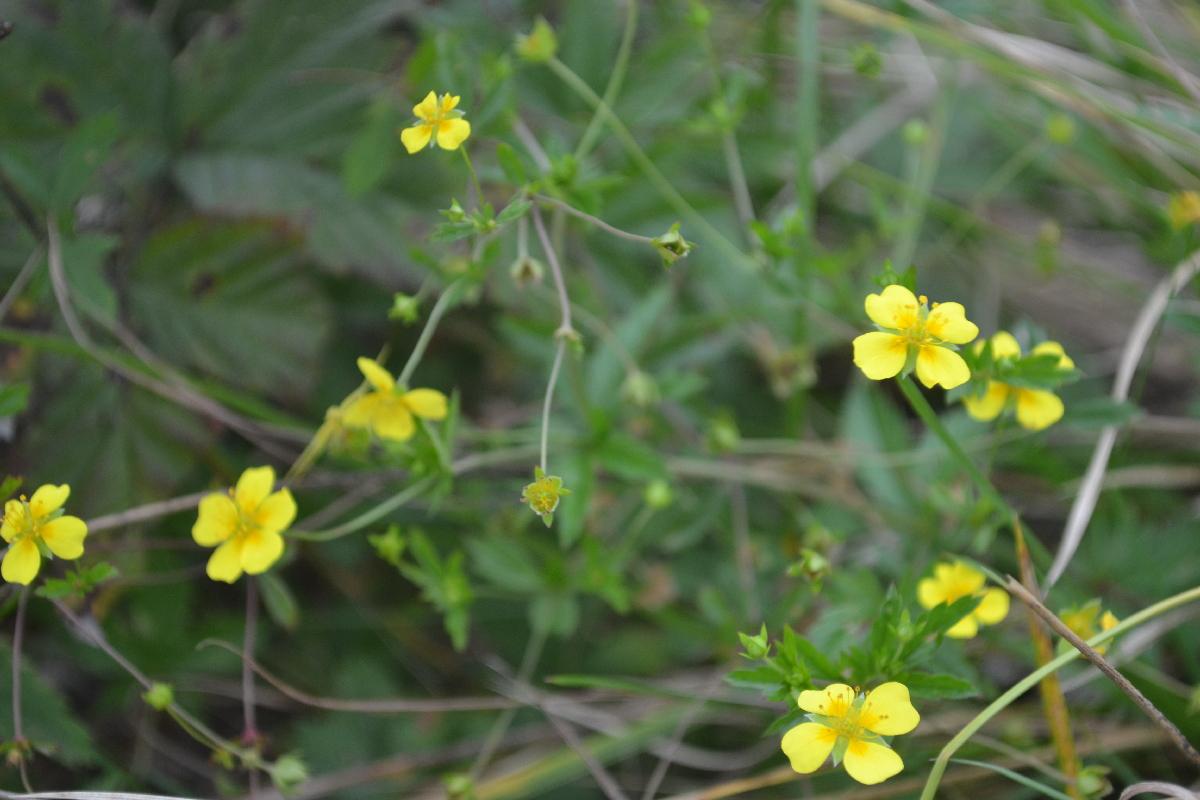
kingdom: Plantae
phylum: Tracheophyta
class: Magnoliopsida
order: Rosales
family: Rosaceae
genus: Potentilla
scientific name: Potentilla erecta
